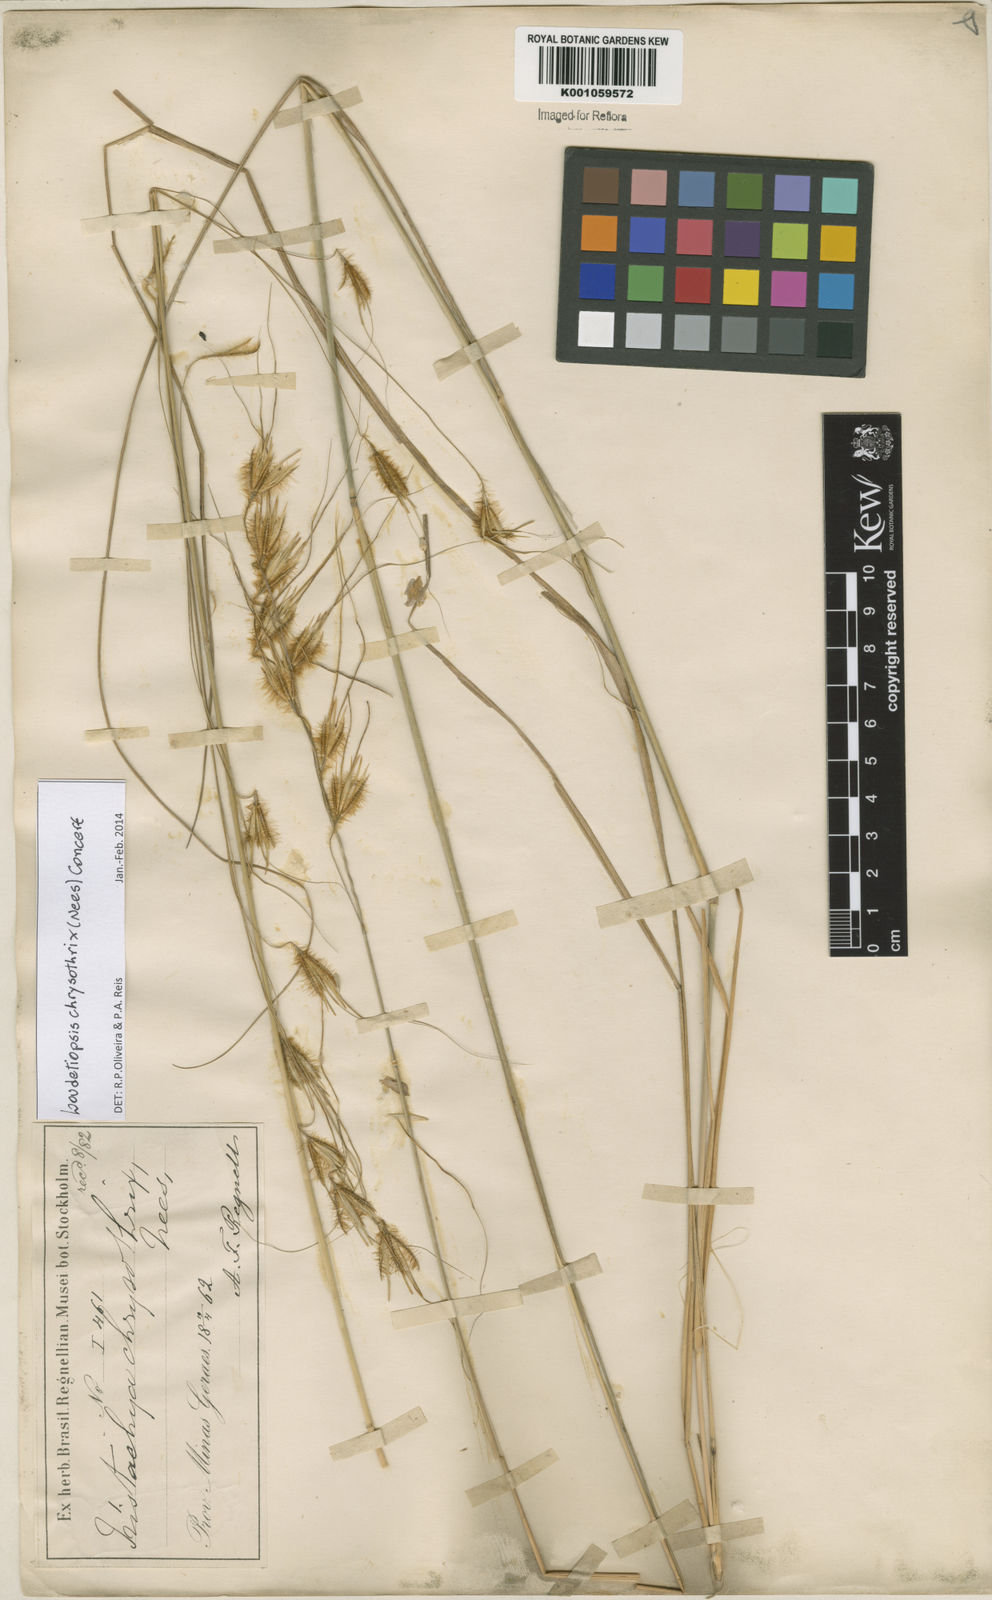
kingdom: Plantae
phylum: Tracheophyta
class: Liliopsida
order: Poales
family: Poaceae
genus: Loudetiopsis
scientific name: Loudetiopsis chrysothrix
